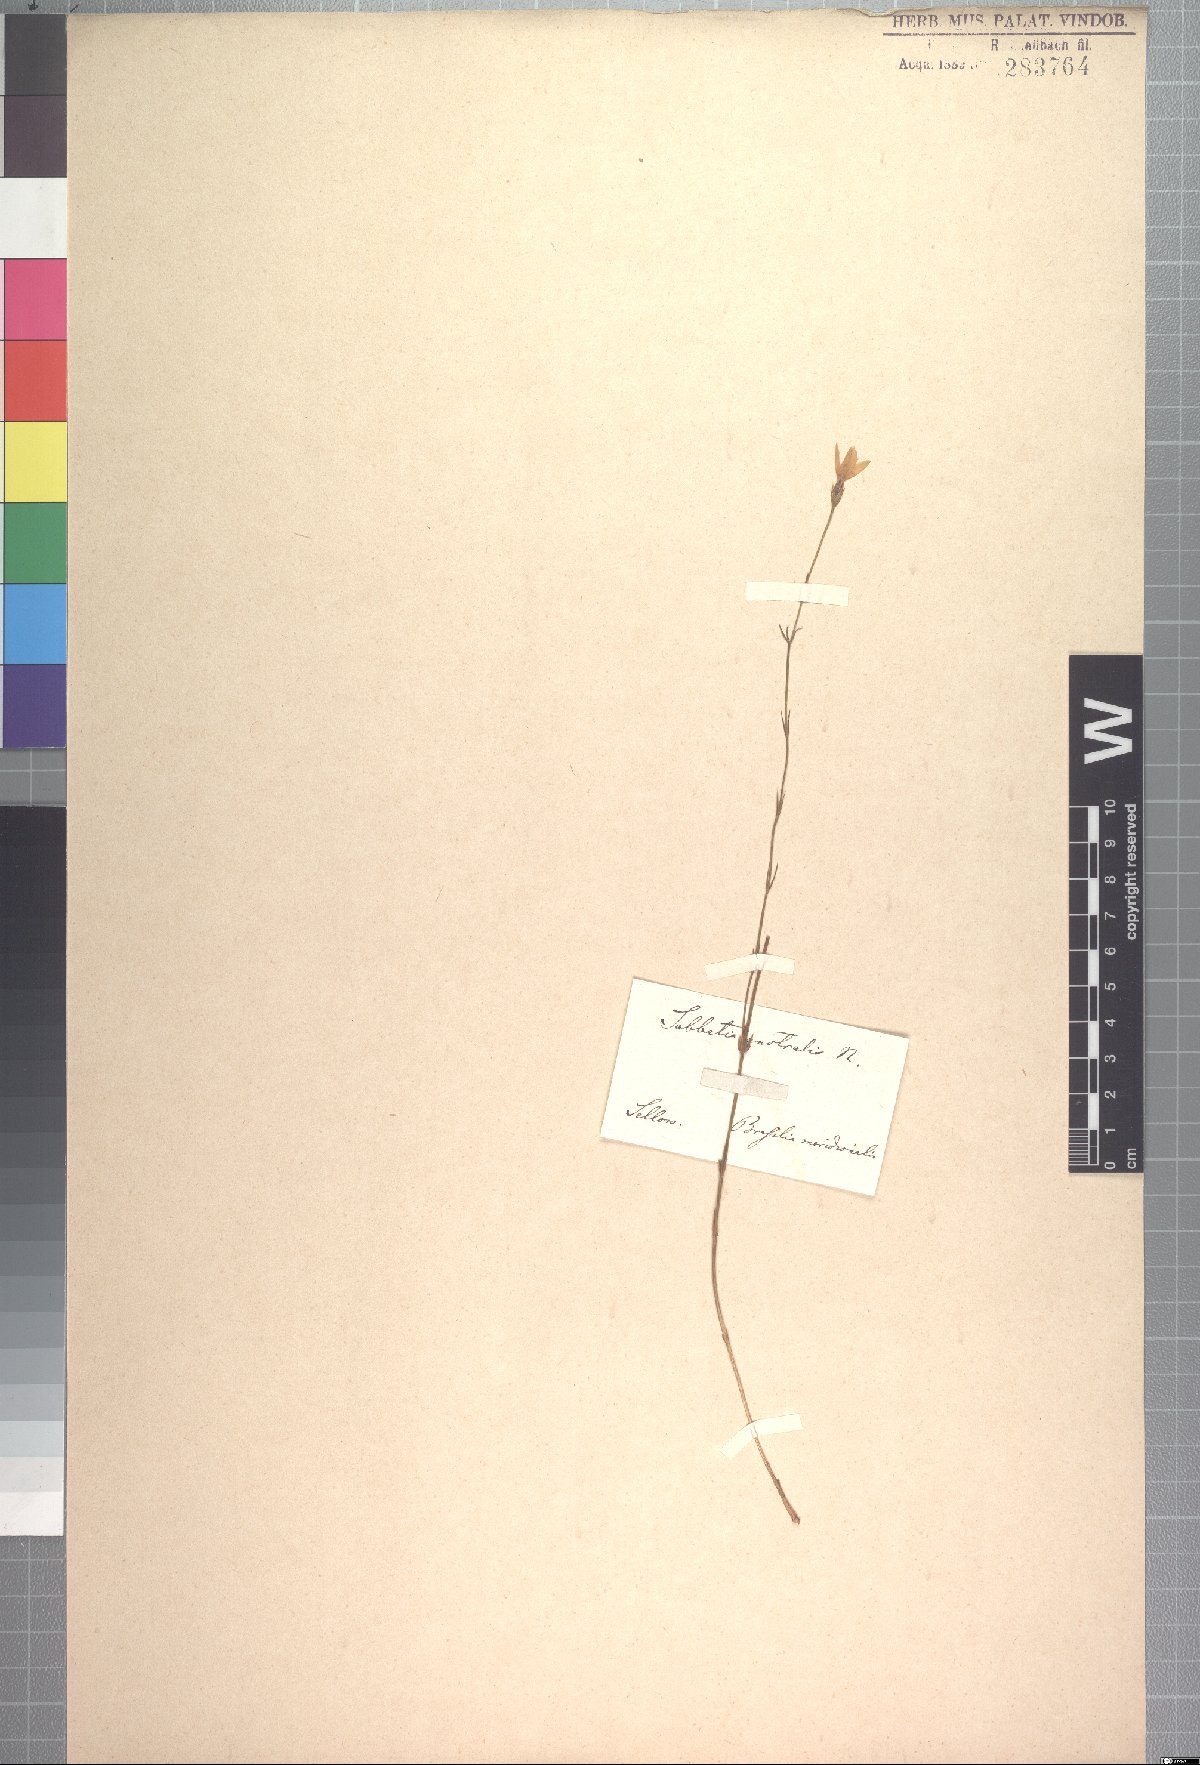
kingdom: Plantae
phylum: Tracheophyta
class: Magnoliopsida
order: Gentianales
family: Gentianaceae
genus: Zygostigma
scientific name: Zygostigma australe
